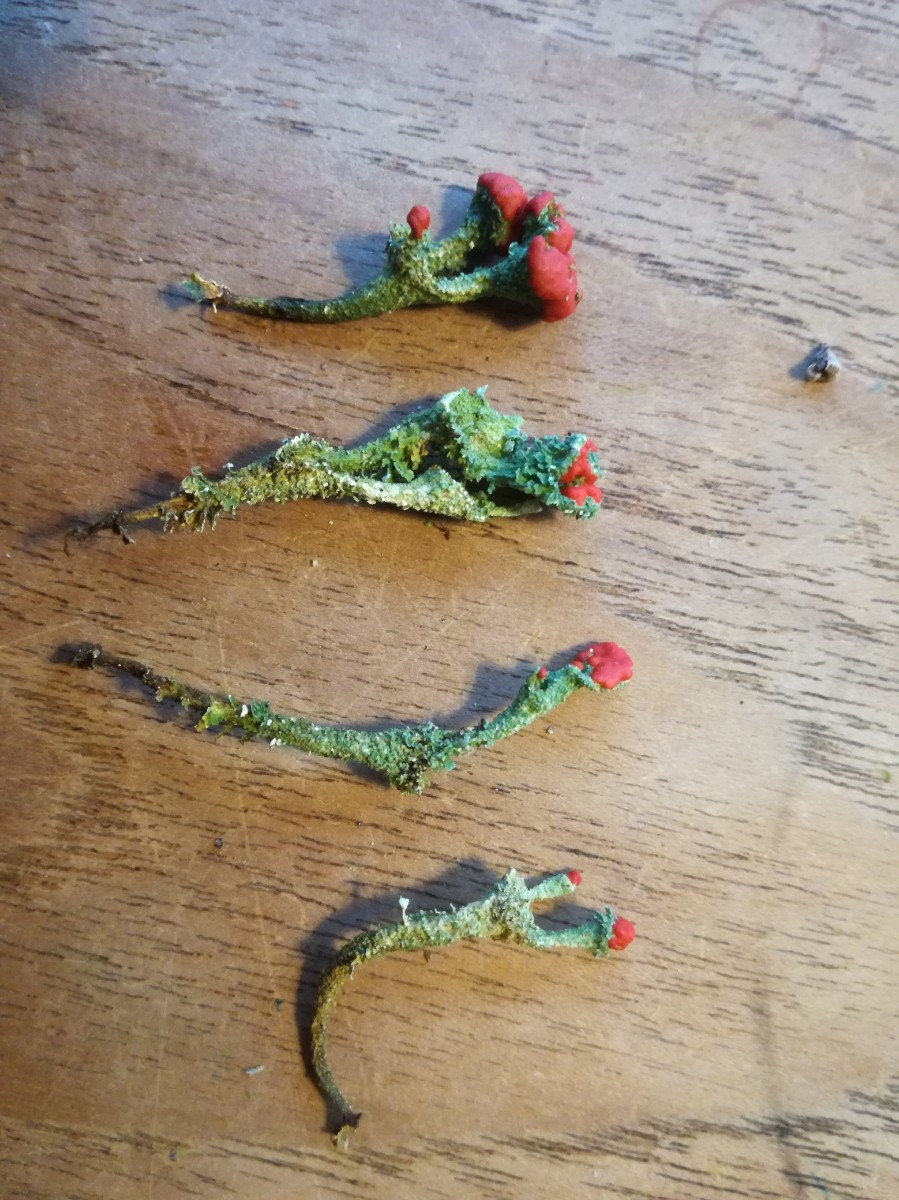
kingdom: Fungi
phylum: Ascomycota
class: Lecanoromycetes
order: Lecanorales
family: Cladoniaceae
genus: Cladonia
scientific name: Cladonia diversa
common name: rød bægerlav
